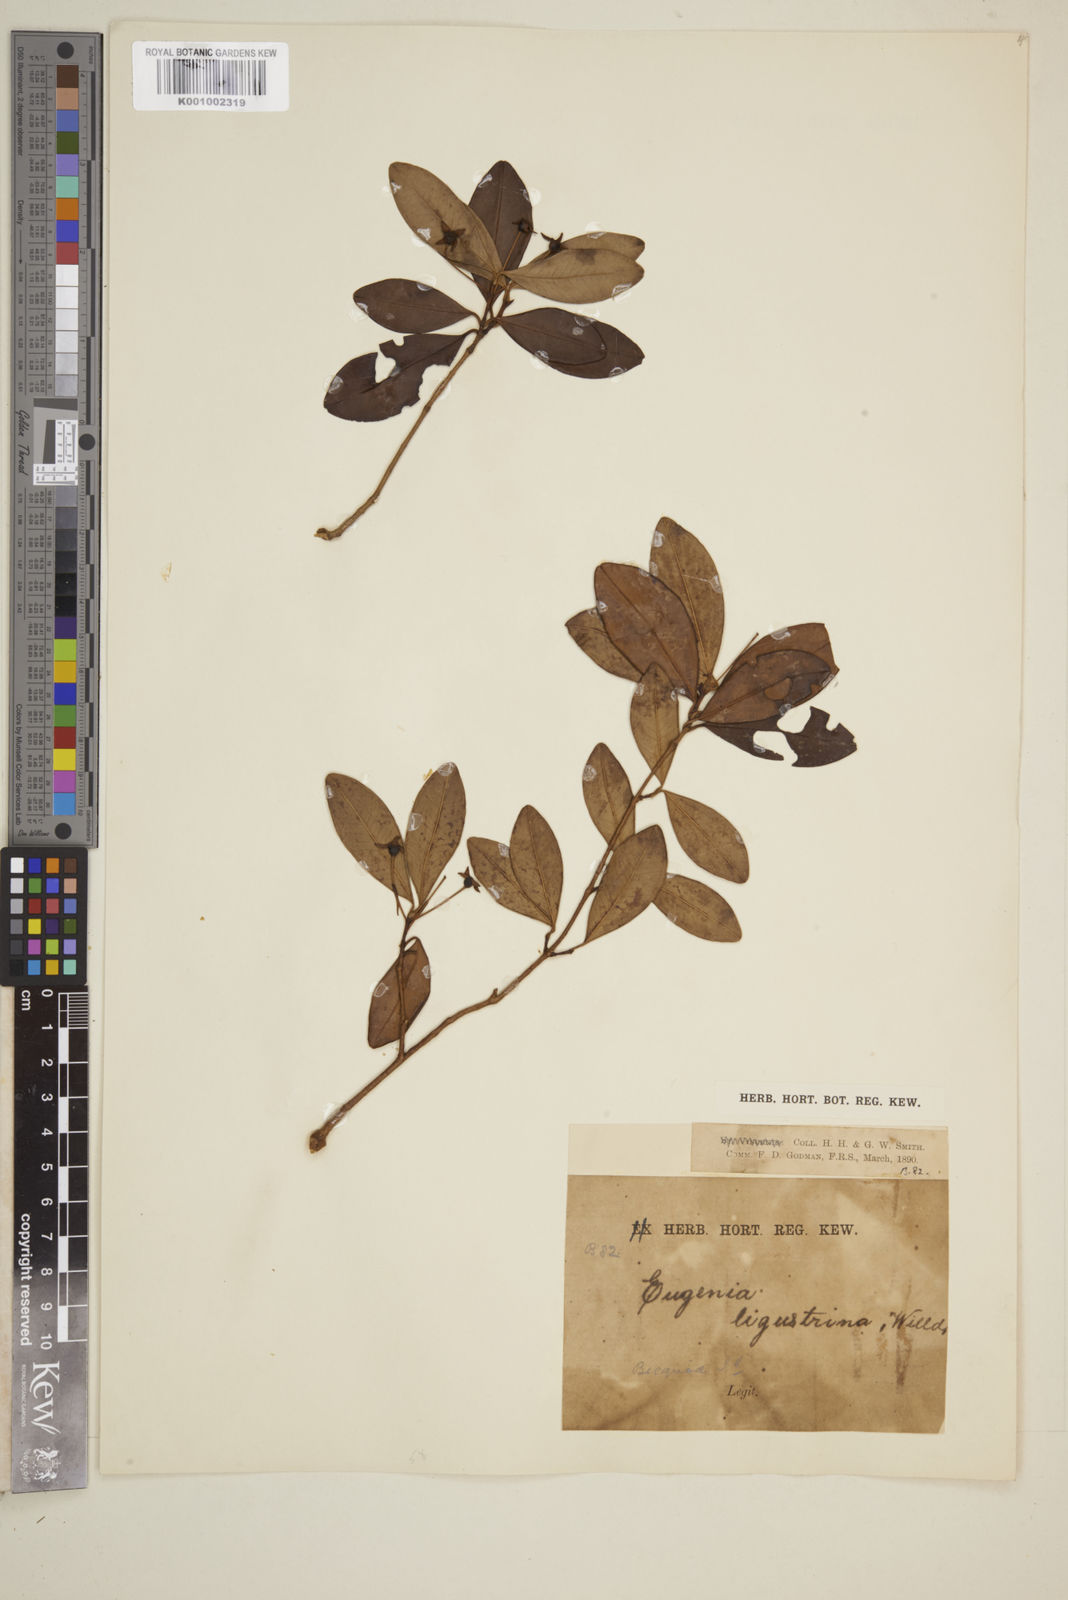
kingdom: Plantae
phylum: Tracheophyta
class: Magnoliopsida
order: Myrtales
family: Myrtaceae
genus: Eugenia
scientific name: Eugenia ligustrina
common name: Privet stopper
